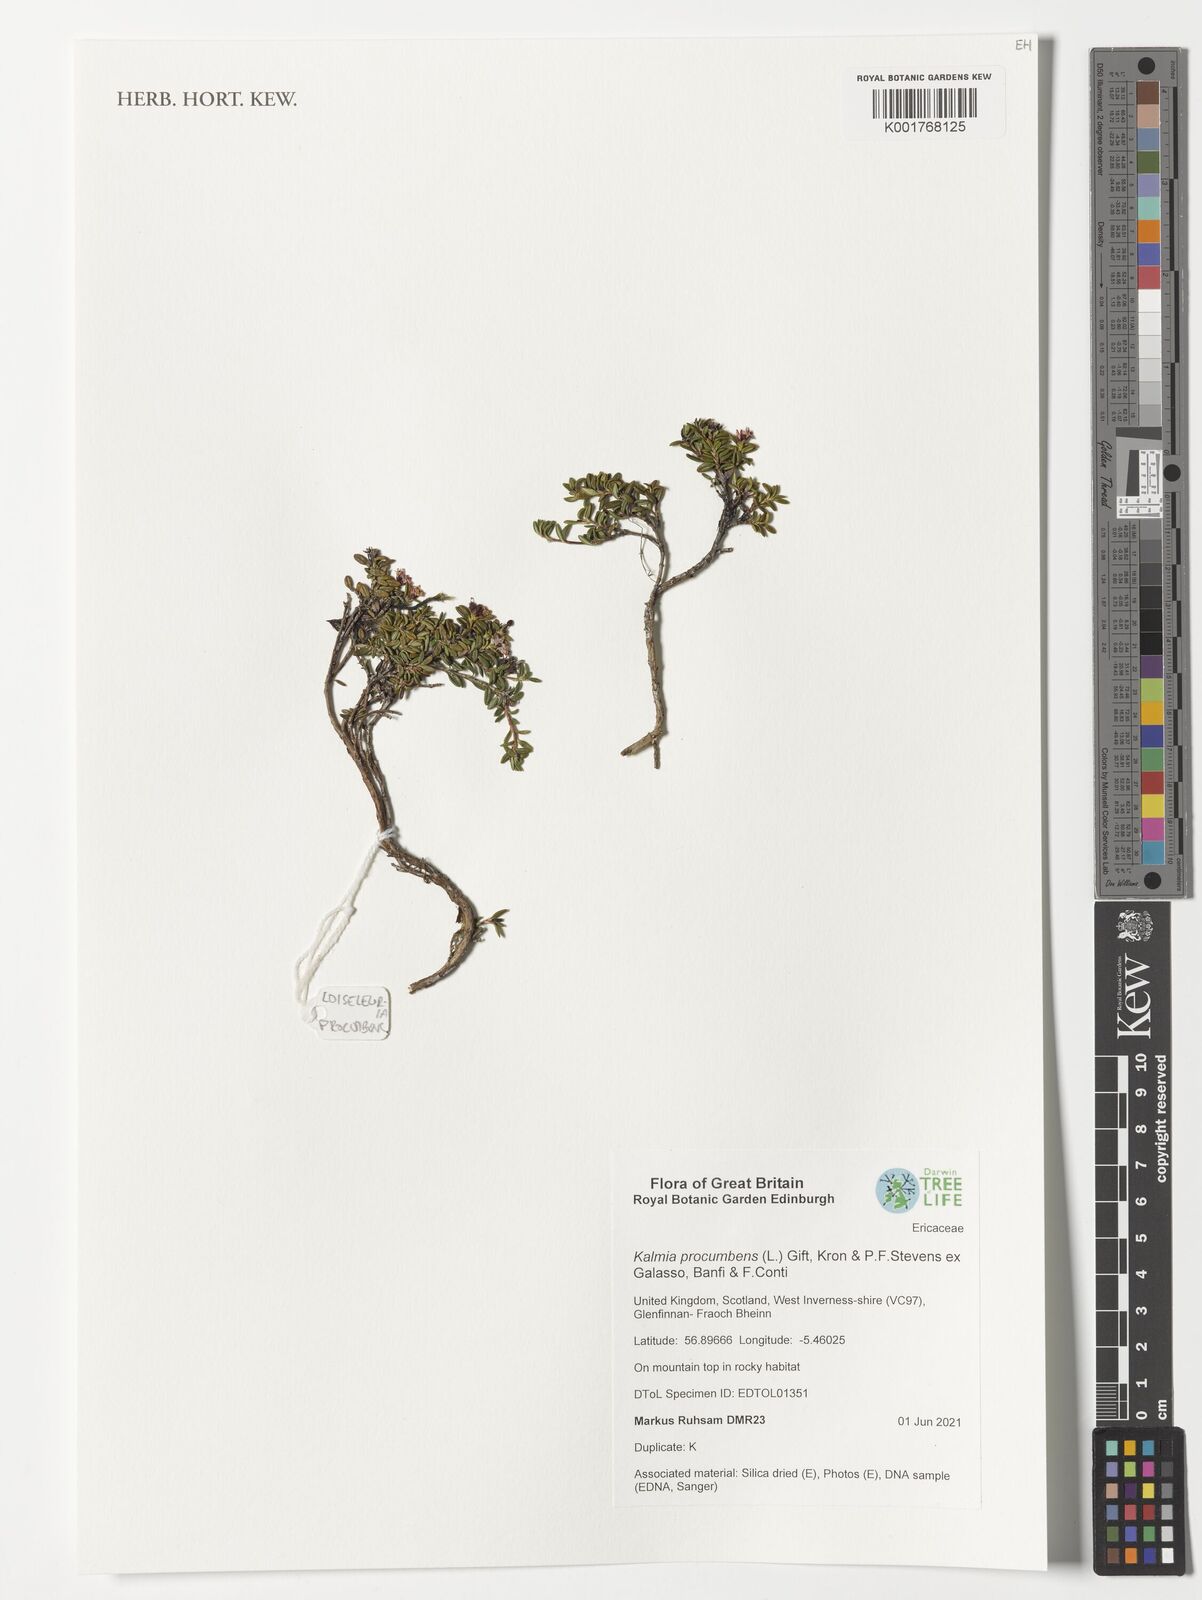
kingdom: Plantae
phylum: Tracheophyta
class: Magnoliopsida
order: Ericales
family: Ericaceae
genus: Kalmia
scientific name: Kalmia procumbens
